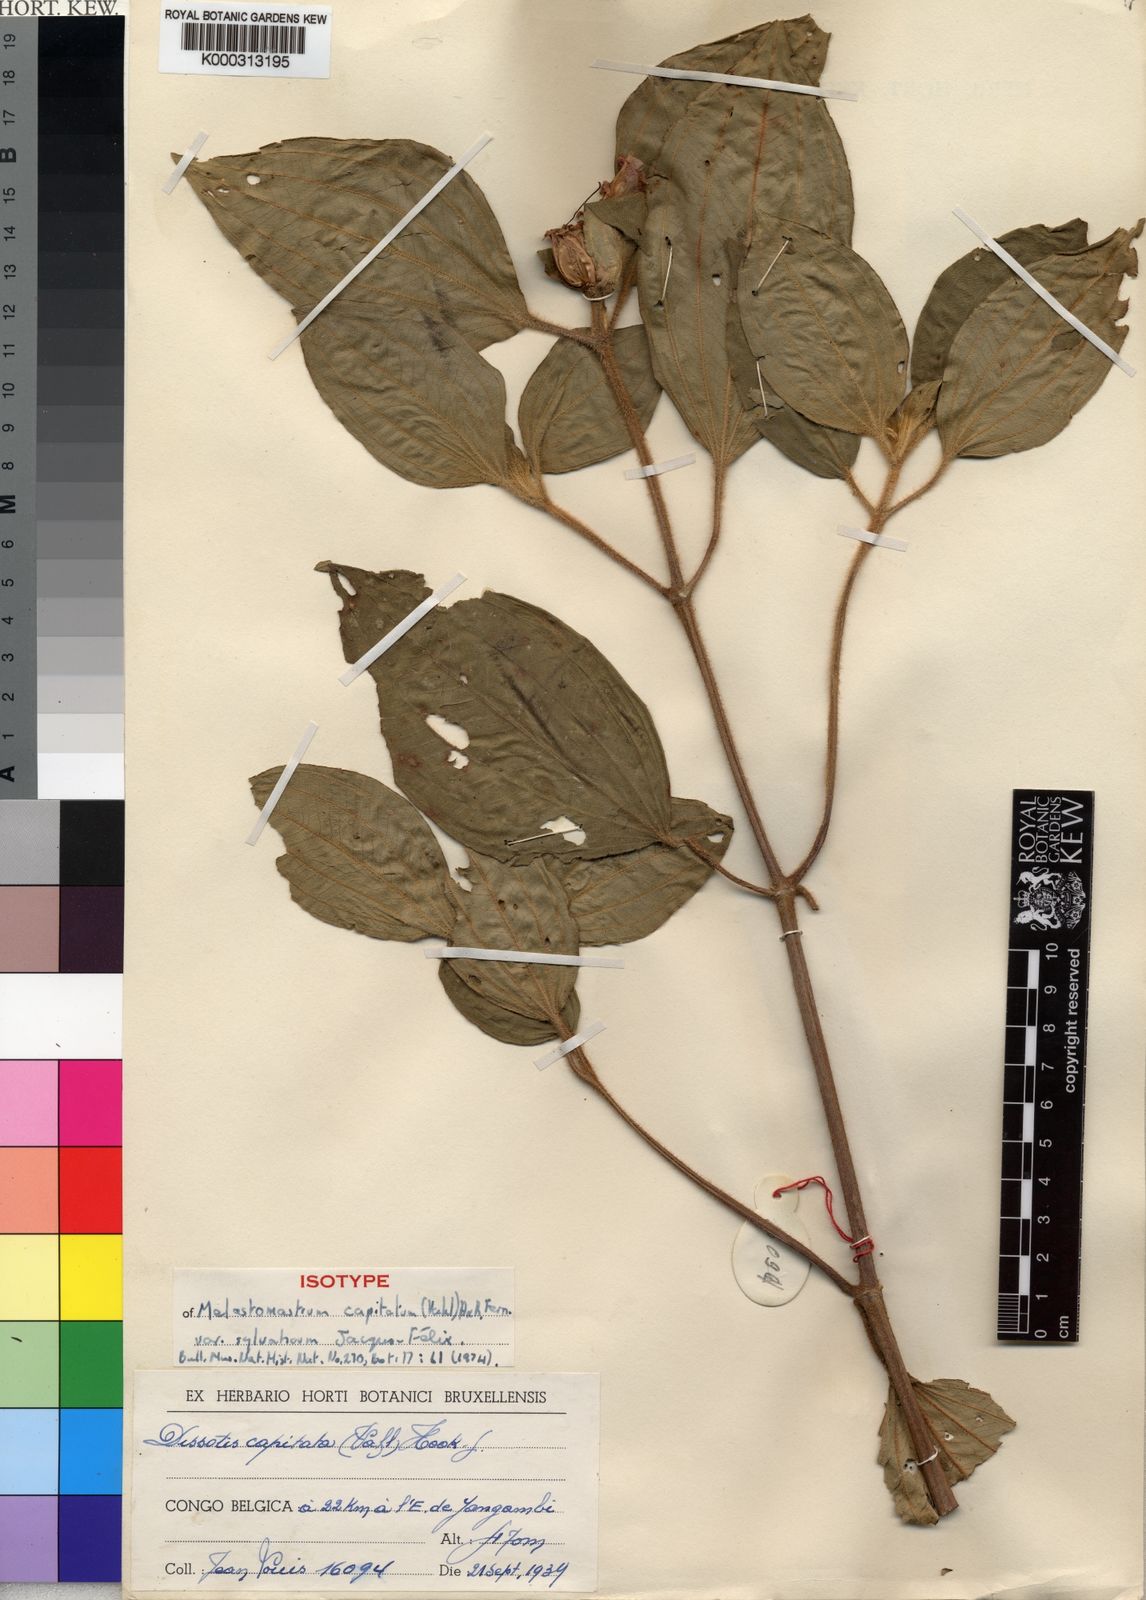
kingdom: Plantae
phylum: Tracheophyta
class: Magnoliopsida
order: Myrtales
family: Melastomataceae
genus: Melastomastrum
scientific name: Melastomastrum capitatum
